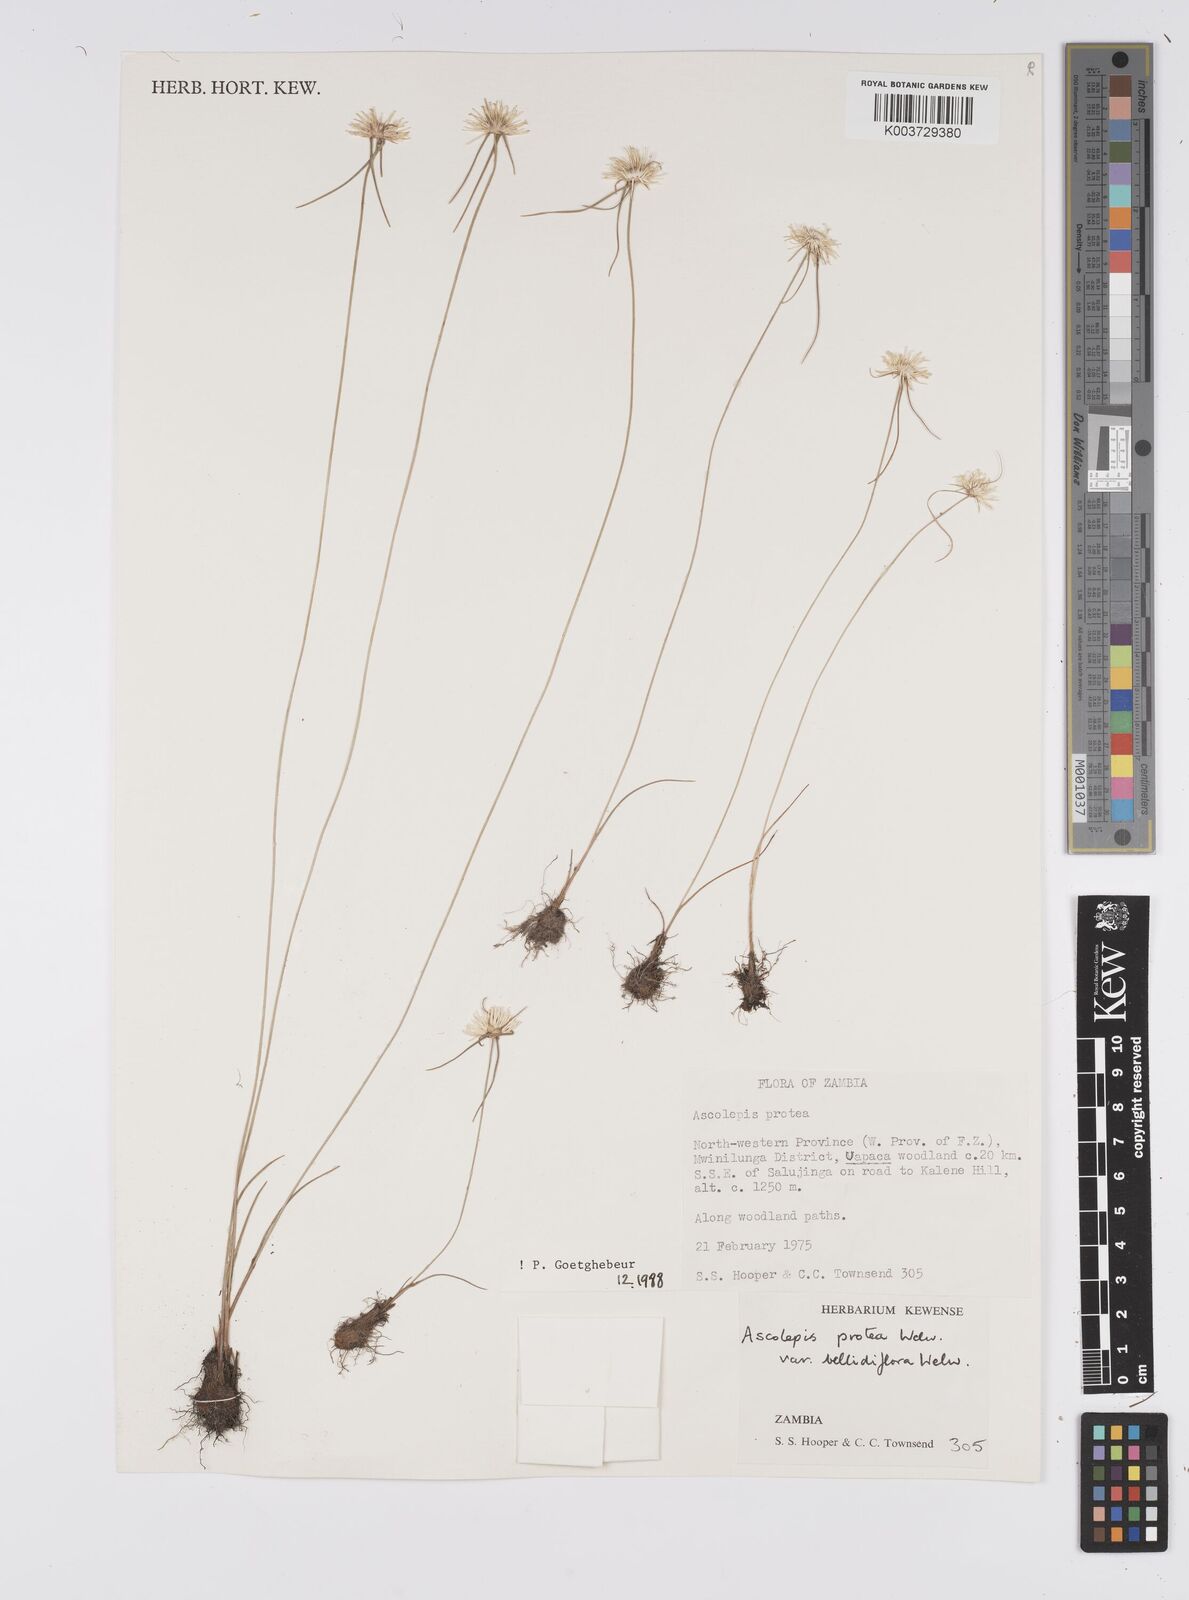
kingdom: Plantae
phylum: Tracheophyta
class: Liliopsida
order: Poales
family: Cyperaceae
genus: Cyperus
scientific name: Cyperus proteus
